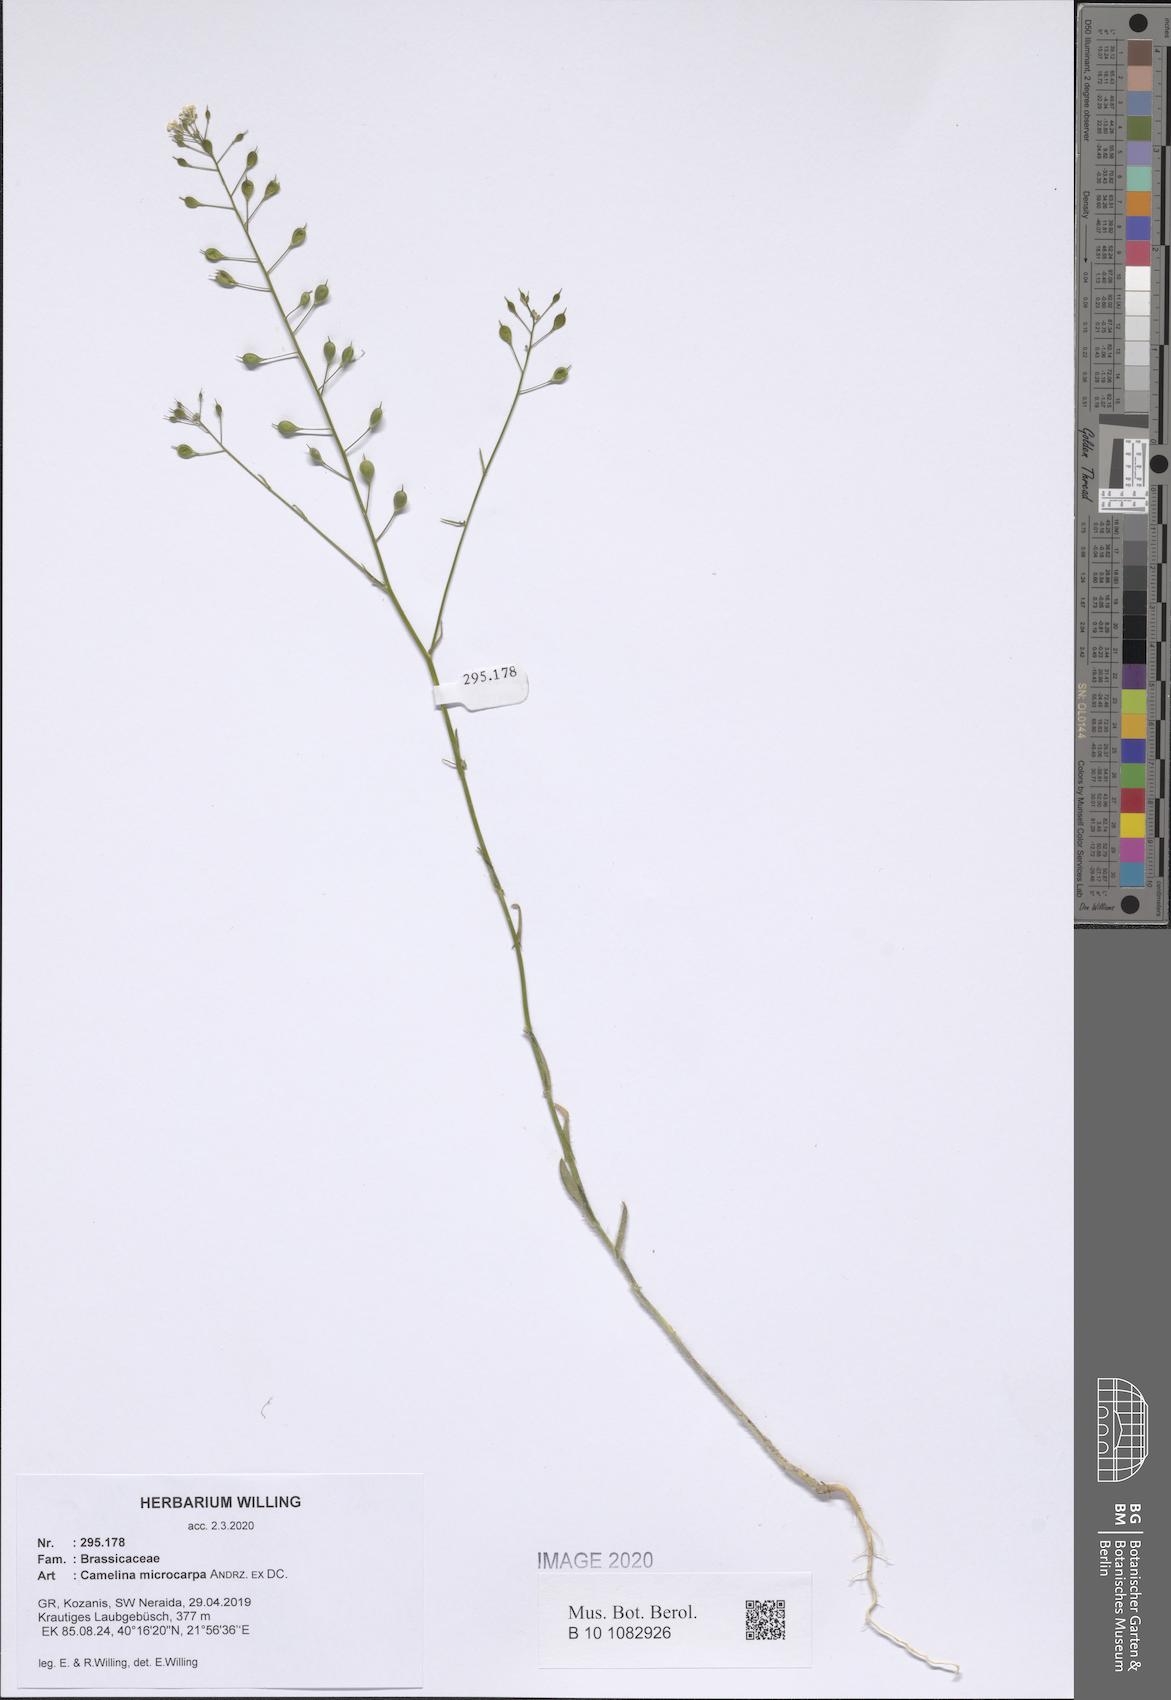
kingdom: Plantae
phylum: Tracheophyta
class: Magnoliopsida
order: Brassicales
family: Brassicaceae
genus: Camelina
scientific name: Camelina microcarpa
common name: Lesser gold-of-pleasure
